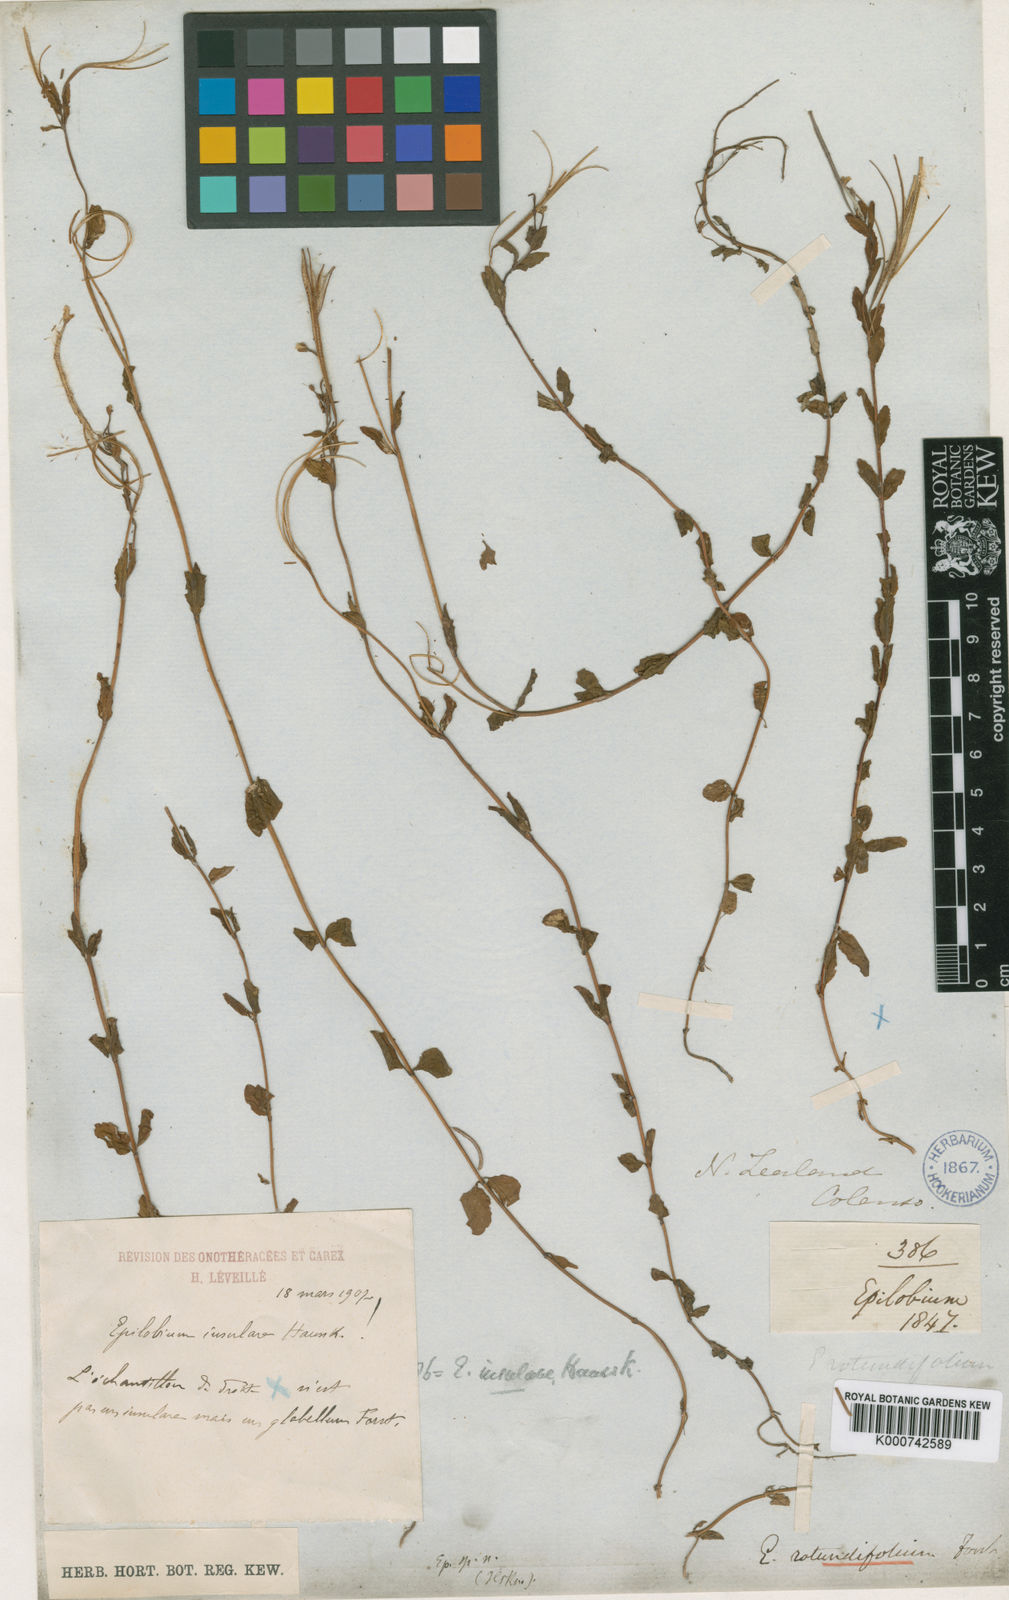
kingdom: Plantae
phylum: Tracheophyta
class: Magnoliopsida
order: Myrtales
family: Onagraceae
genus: Epilobium
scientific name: Epilobium insulare
